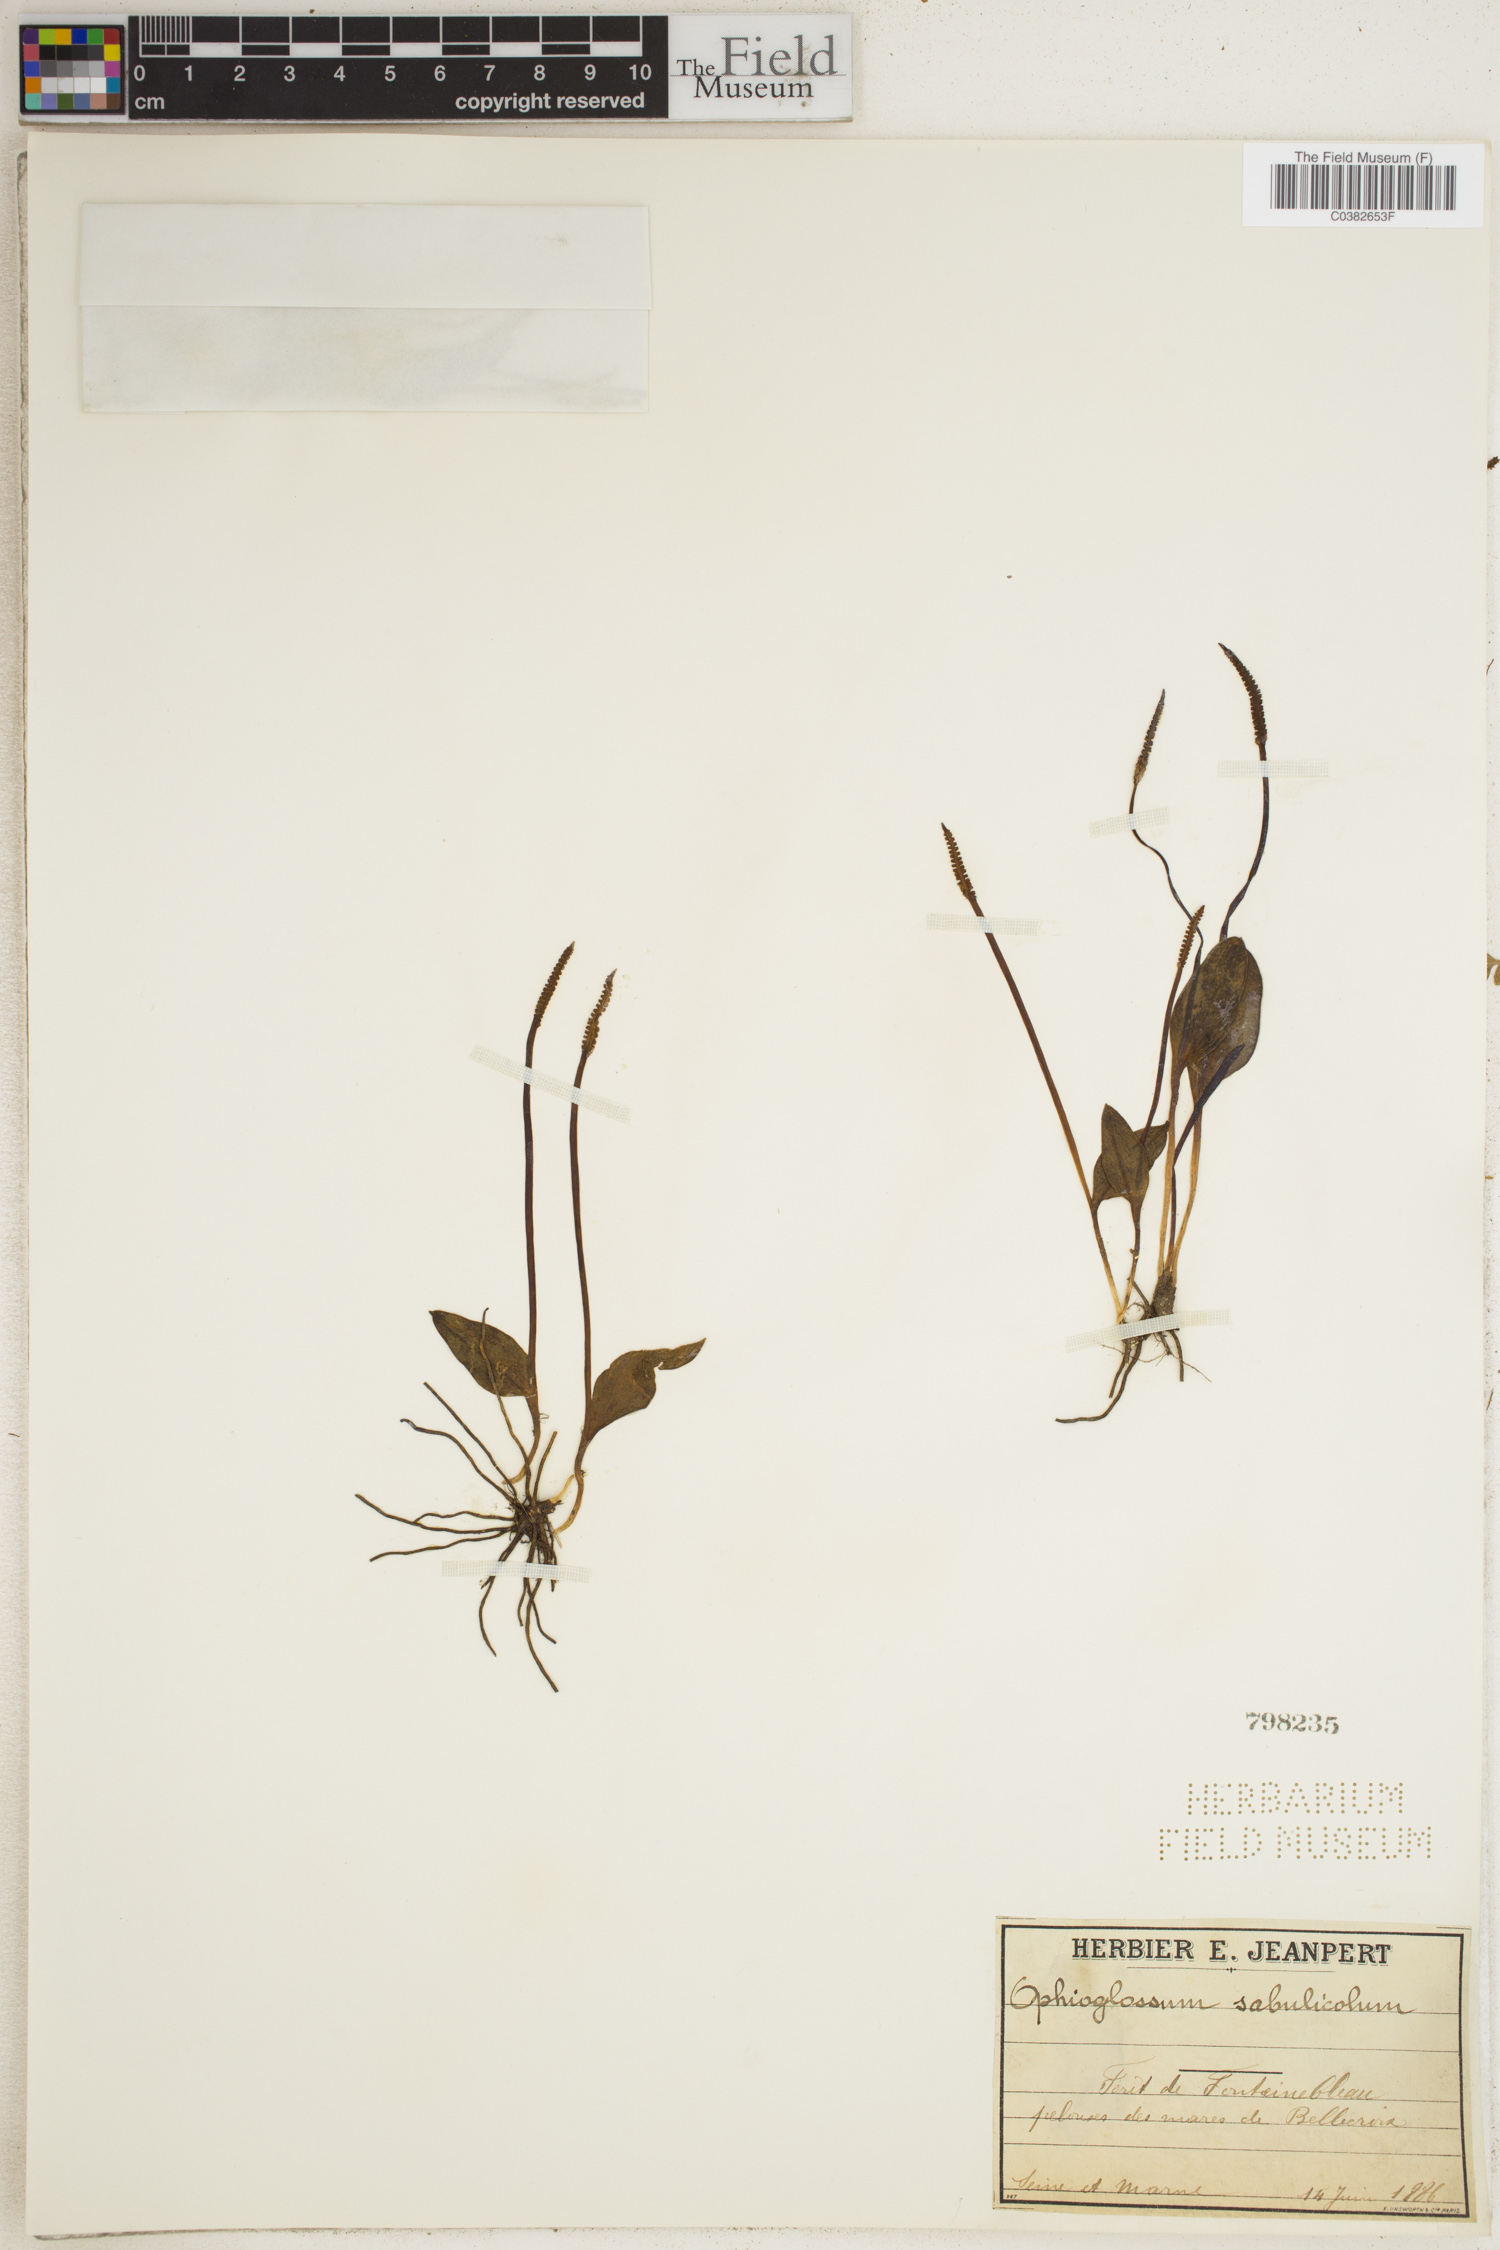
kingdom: Plantae
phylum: Tracheophyta
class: Polypodiopsida
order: Ophioglossales
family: Ophioglossaceae
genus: Ophioglossum
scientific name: Ophioglossum vulgatum
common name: Adder's-tongue
